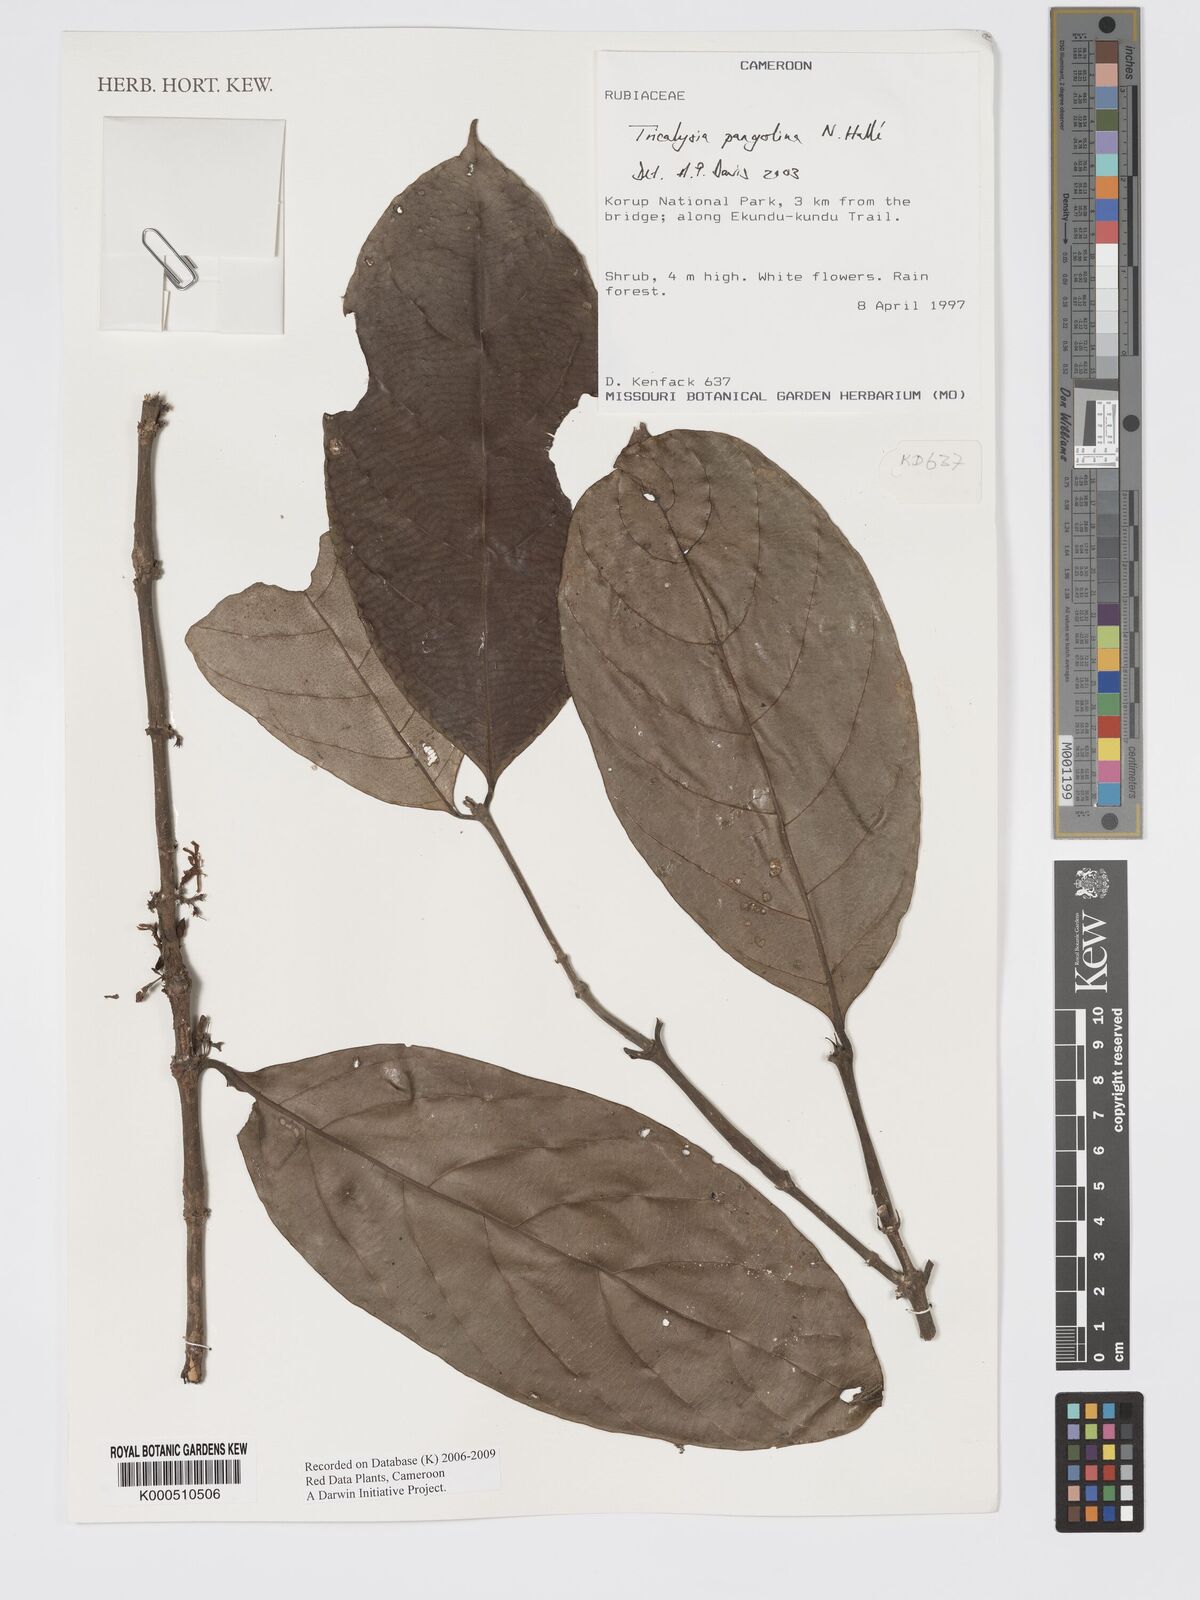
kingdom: Plantae
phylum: Tracheophyta
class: Magnoliopsida
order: Gentianales
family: Rubiaceae
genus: Tricalysia
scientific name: Tricalysia
